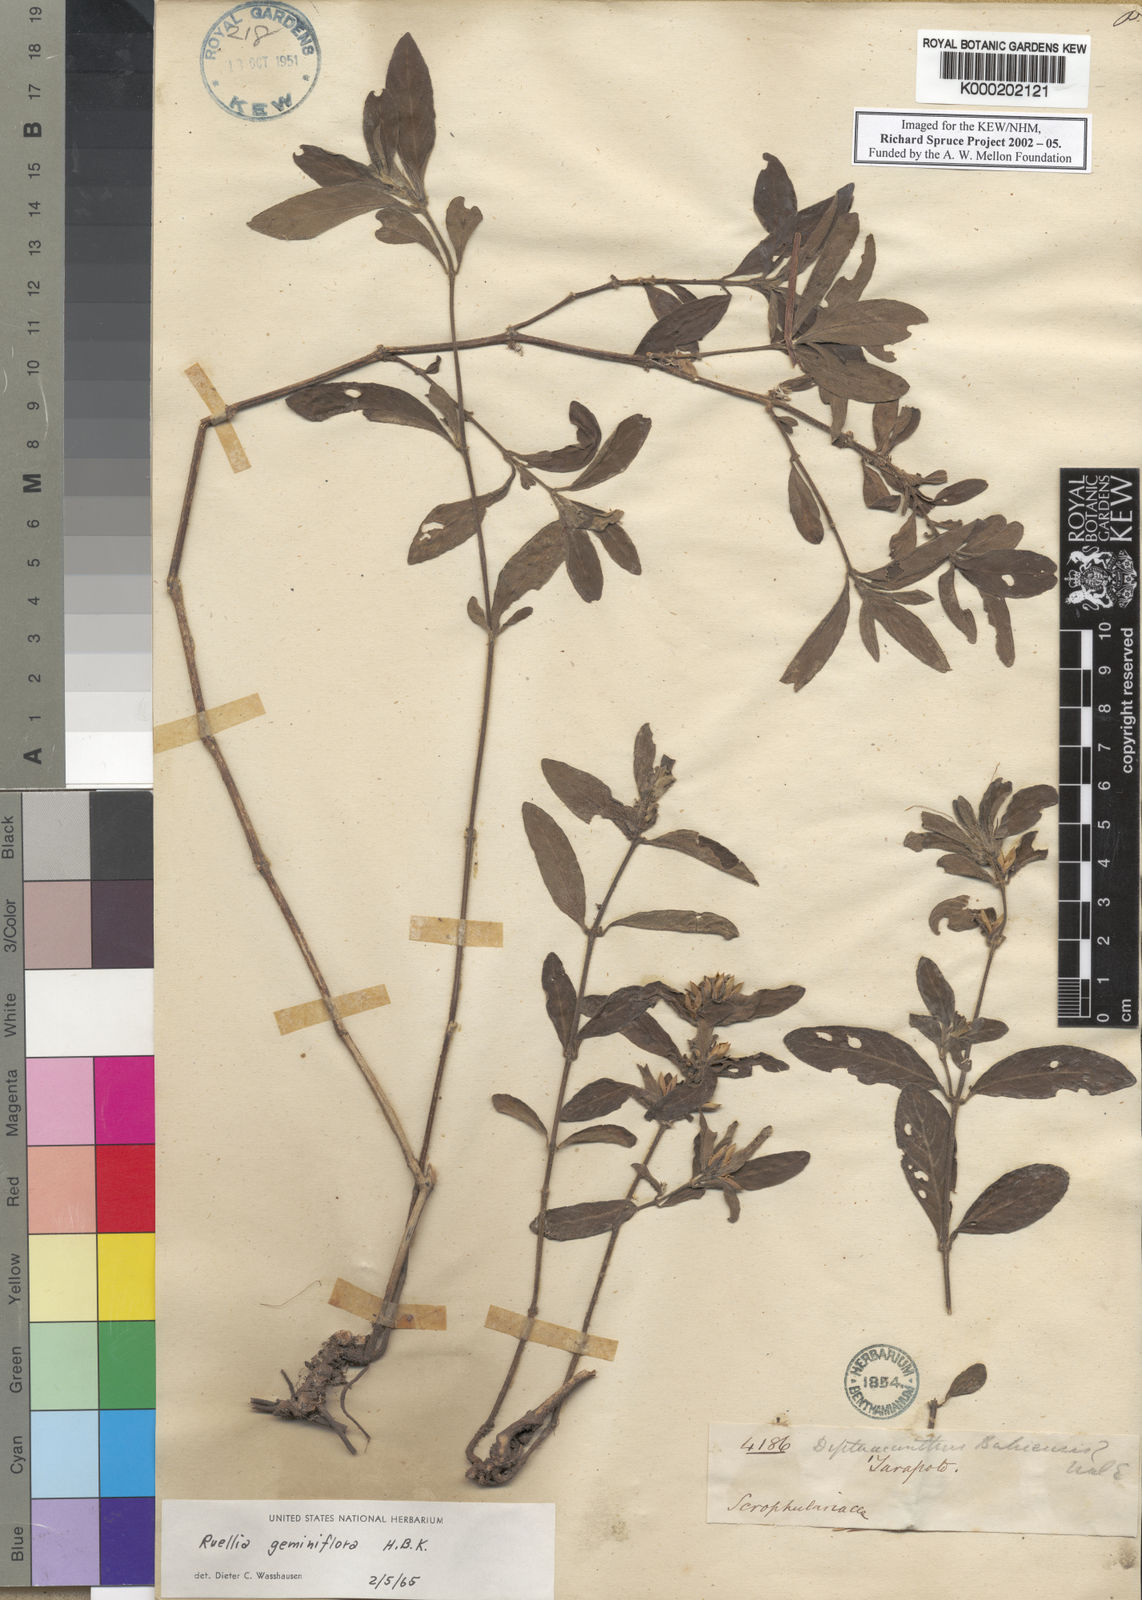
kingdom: Plantae
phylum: Tracheophyta
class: Magnoliopsida
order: Lamiales
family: Acanthaceae
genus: Ruellia
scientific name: Ruellia geminiflora
